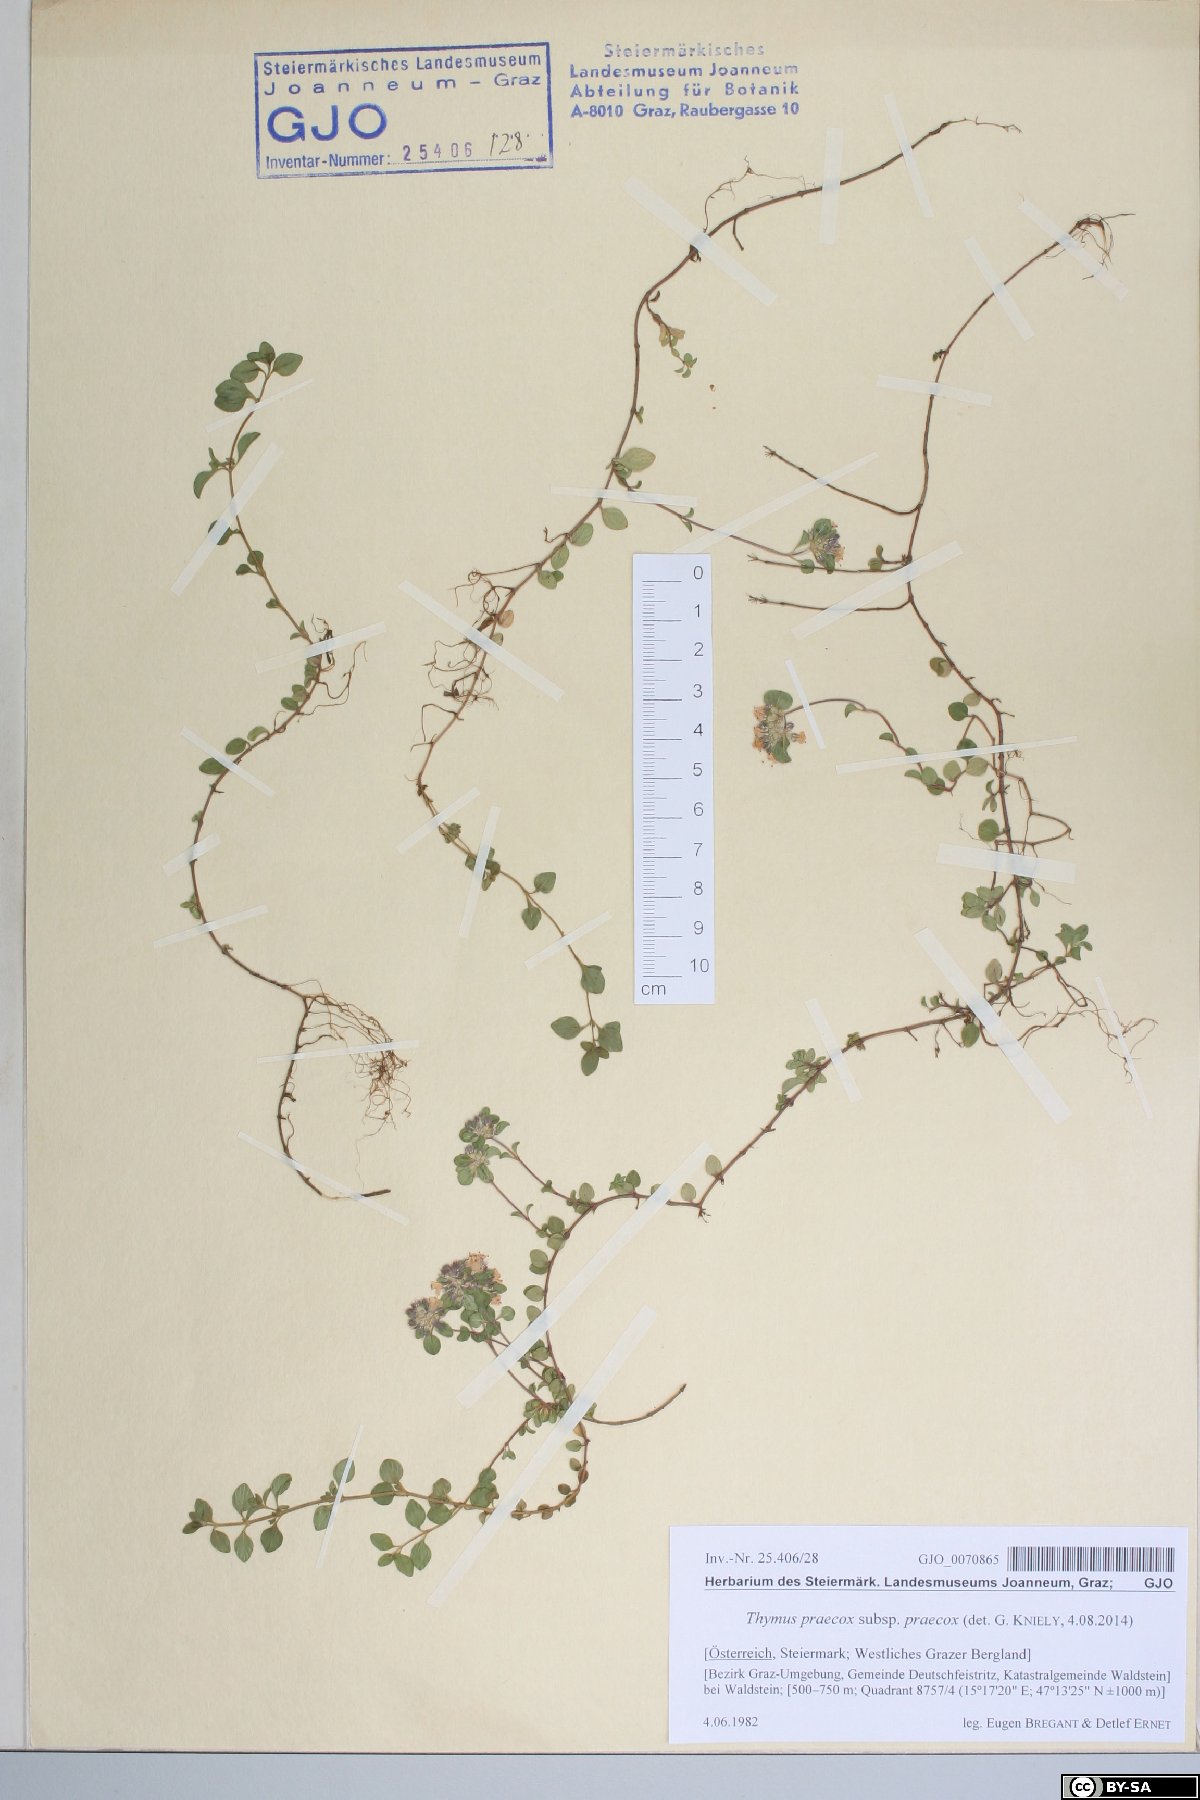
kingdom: Plantae
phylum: Tracheophyta
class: Magnoliopsida
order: Lamiales
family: Lamiaceae
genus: Thymus
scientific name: Thymus praecox
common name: Wild thyme
